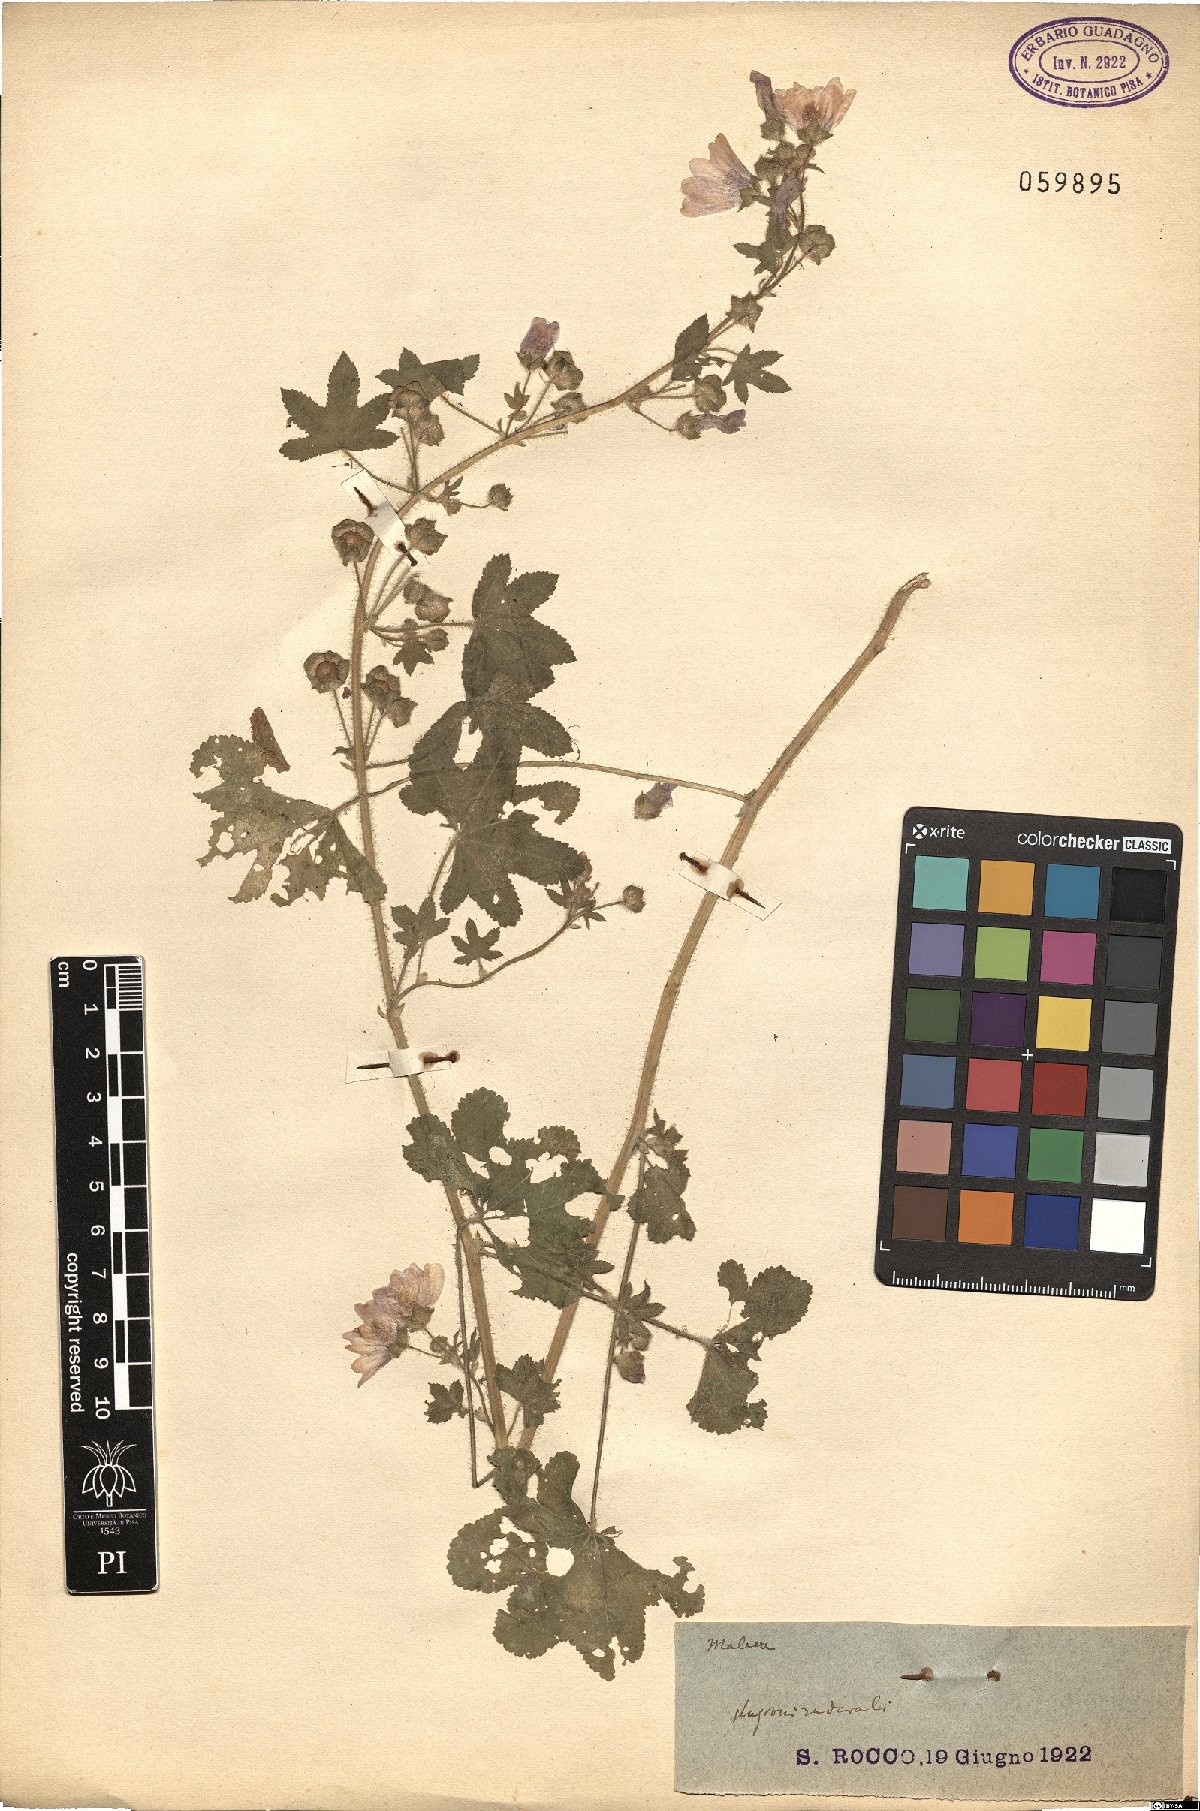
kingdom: Plantae
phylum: Tracheophyta
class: Magnoliopsida
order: Malvales
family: Malvaceae
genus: Malva
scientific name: Malva
